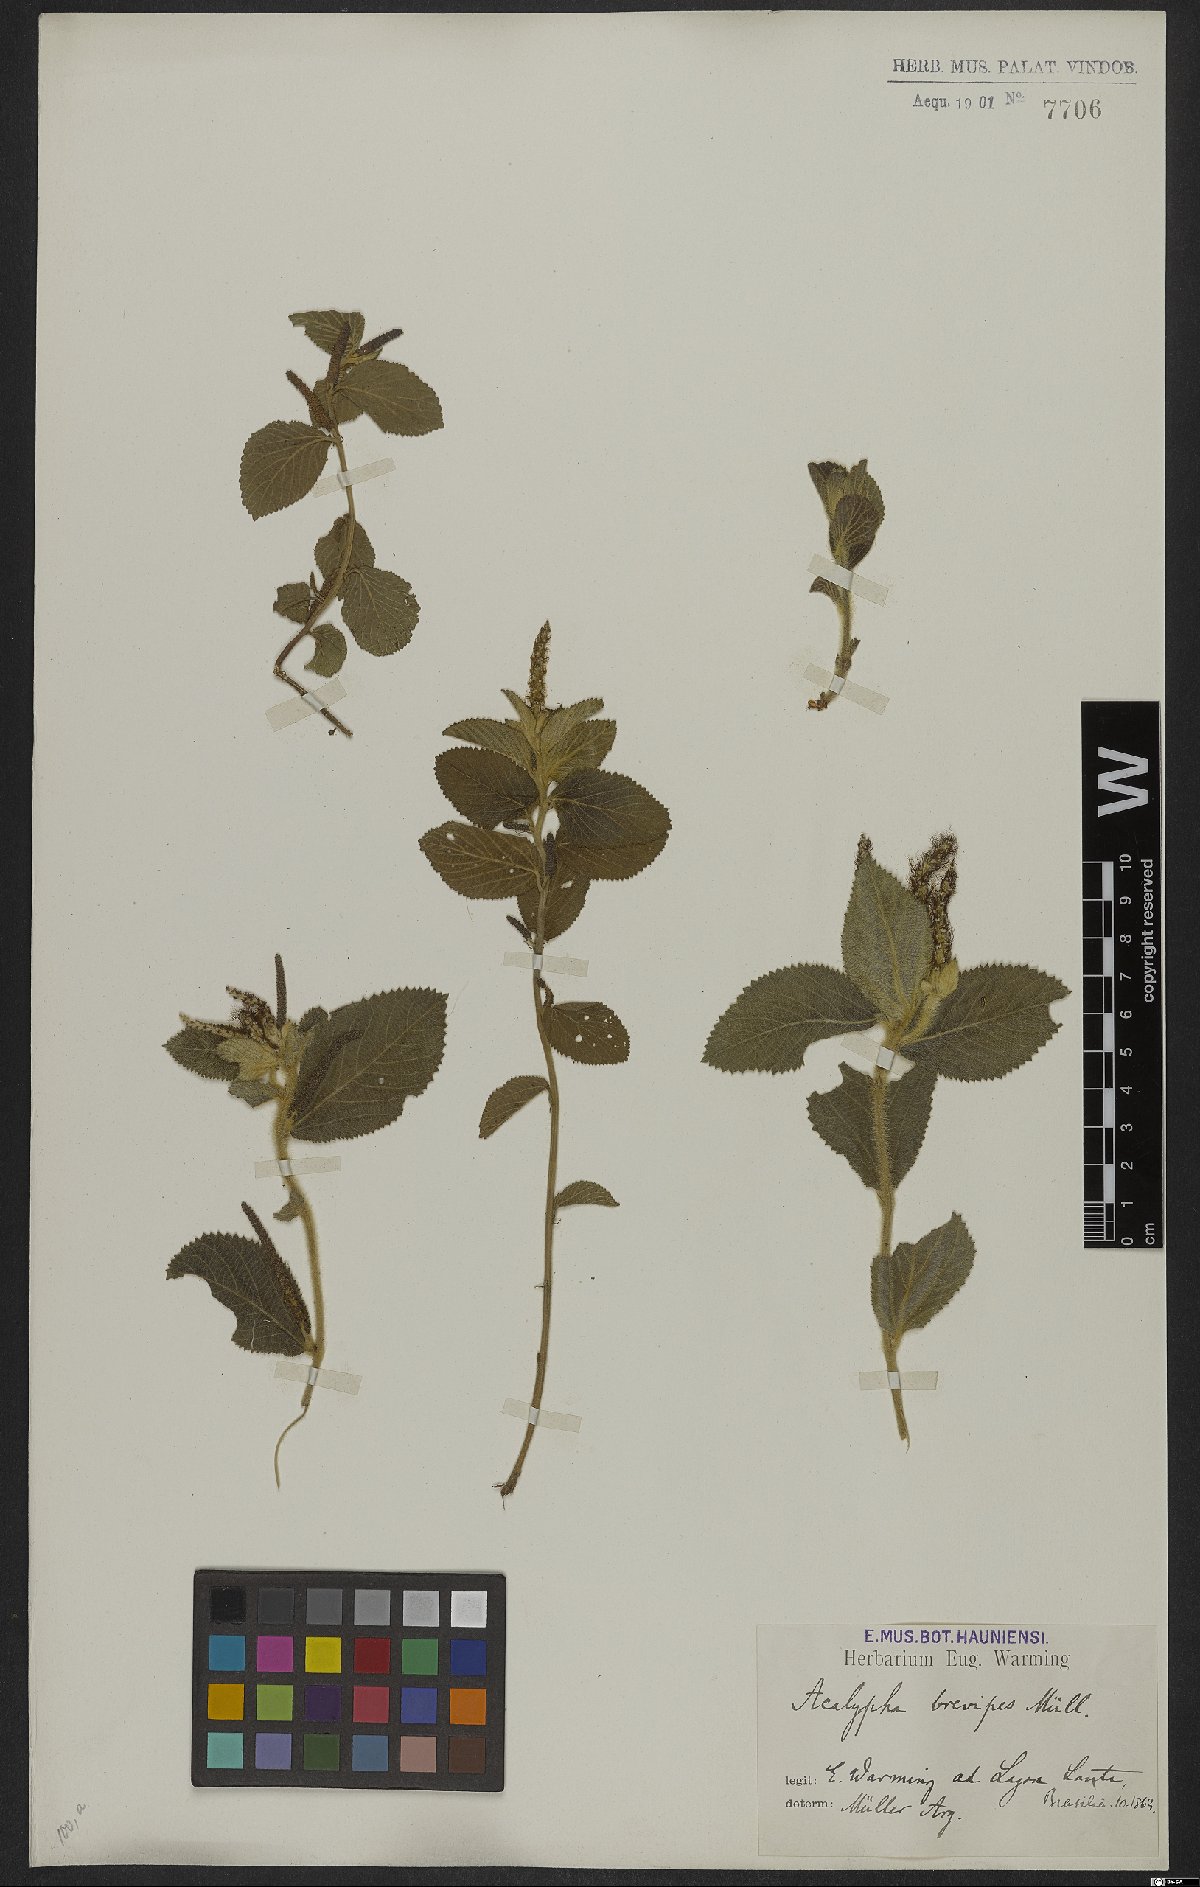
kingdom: Plantae
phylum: Tracheophyta
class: Magnoliopsida
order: Malpighiales
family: Euphorbiaceae
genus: Acalypha
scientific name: Acalypha vellamea
